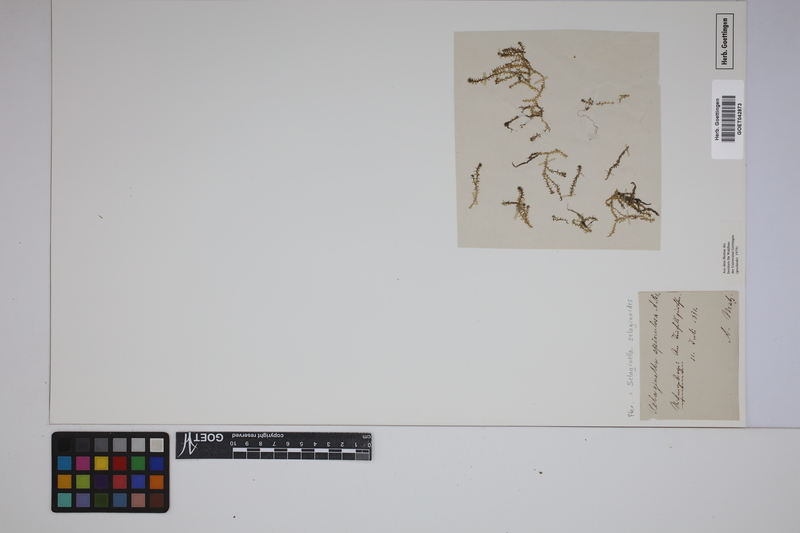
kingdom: Plantae
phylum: Tracheophyta
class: Lycopodiopsida
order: Selaginellales
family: Selaginellaceae
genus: Selaginella
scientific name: Selaginella selaginoides
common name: Prickly mountain-moss
